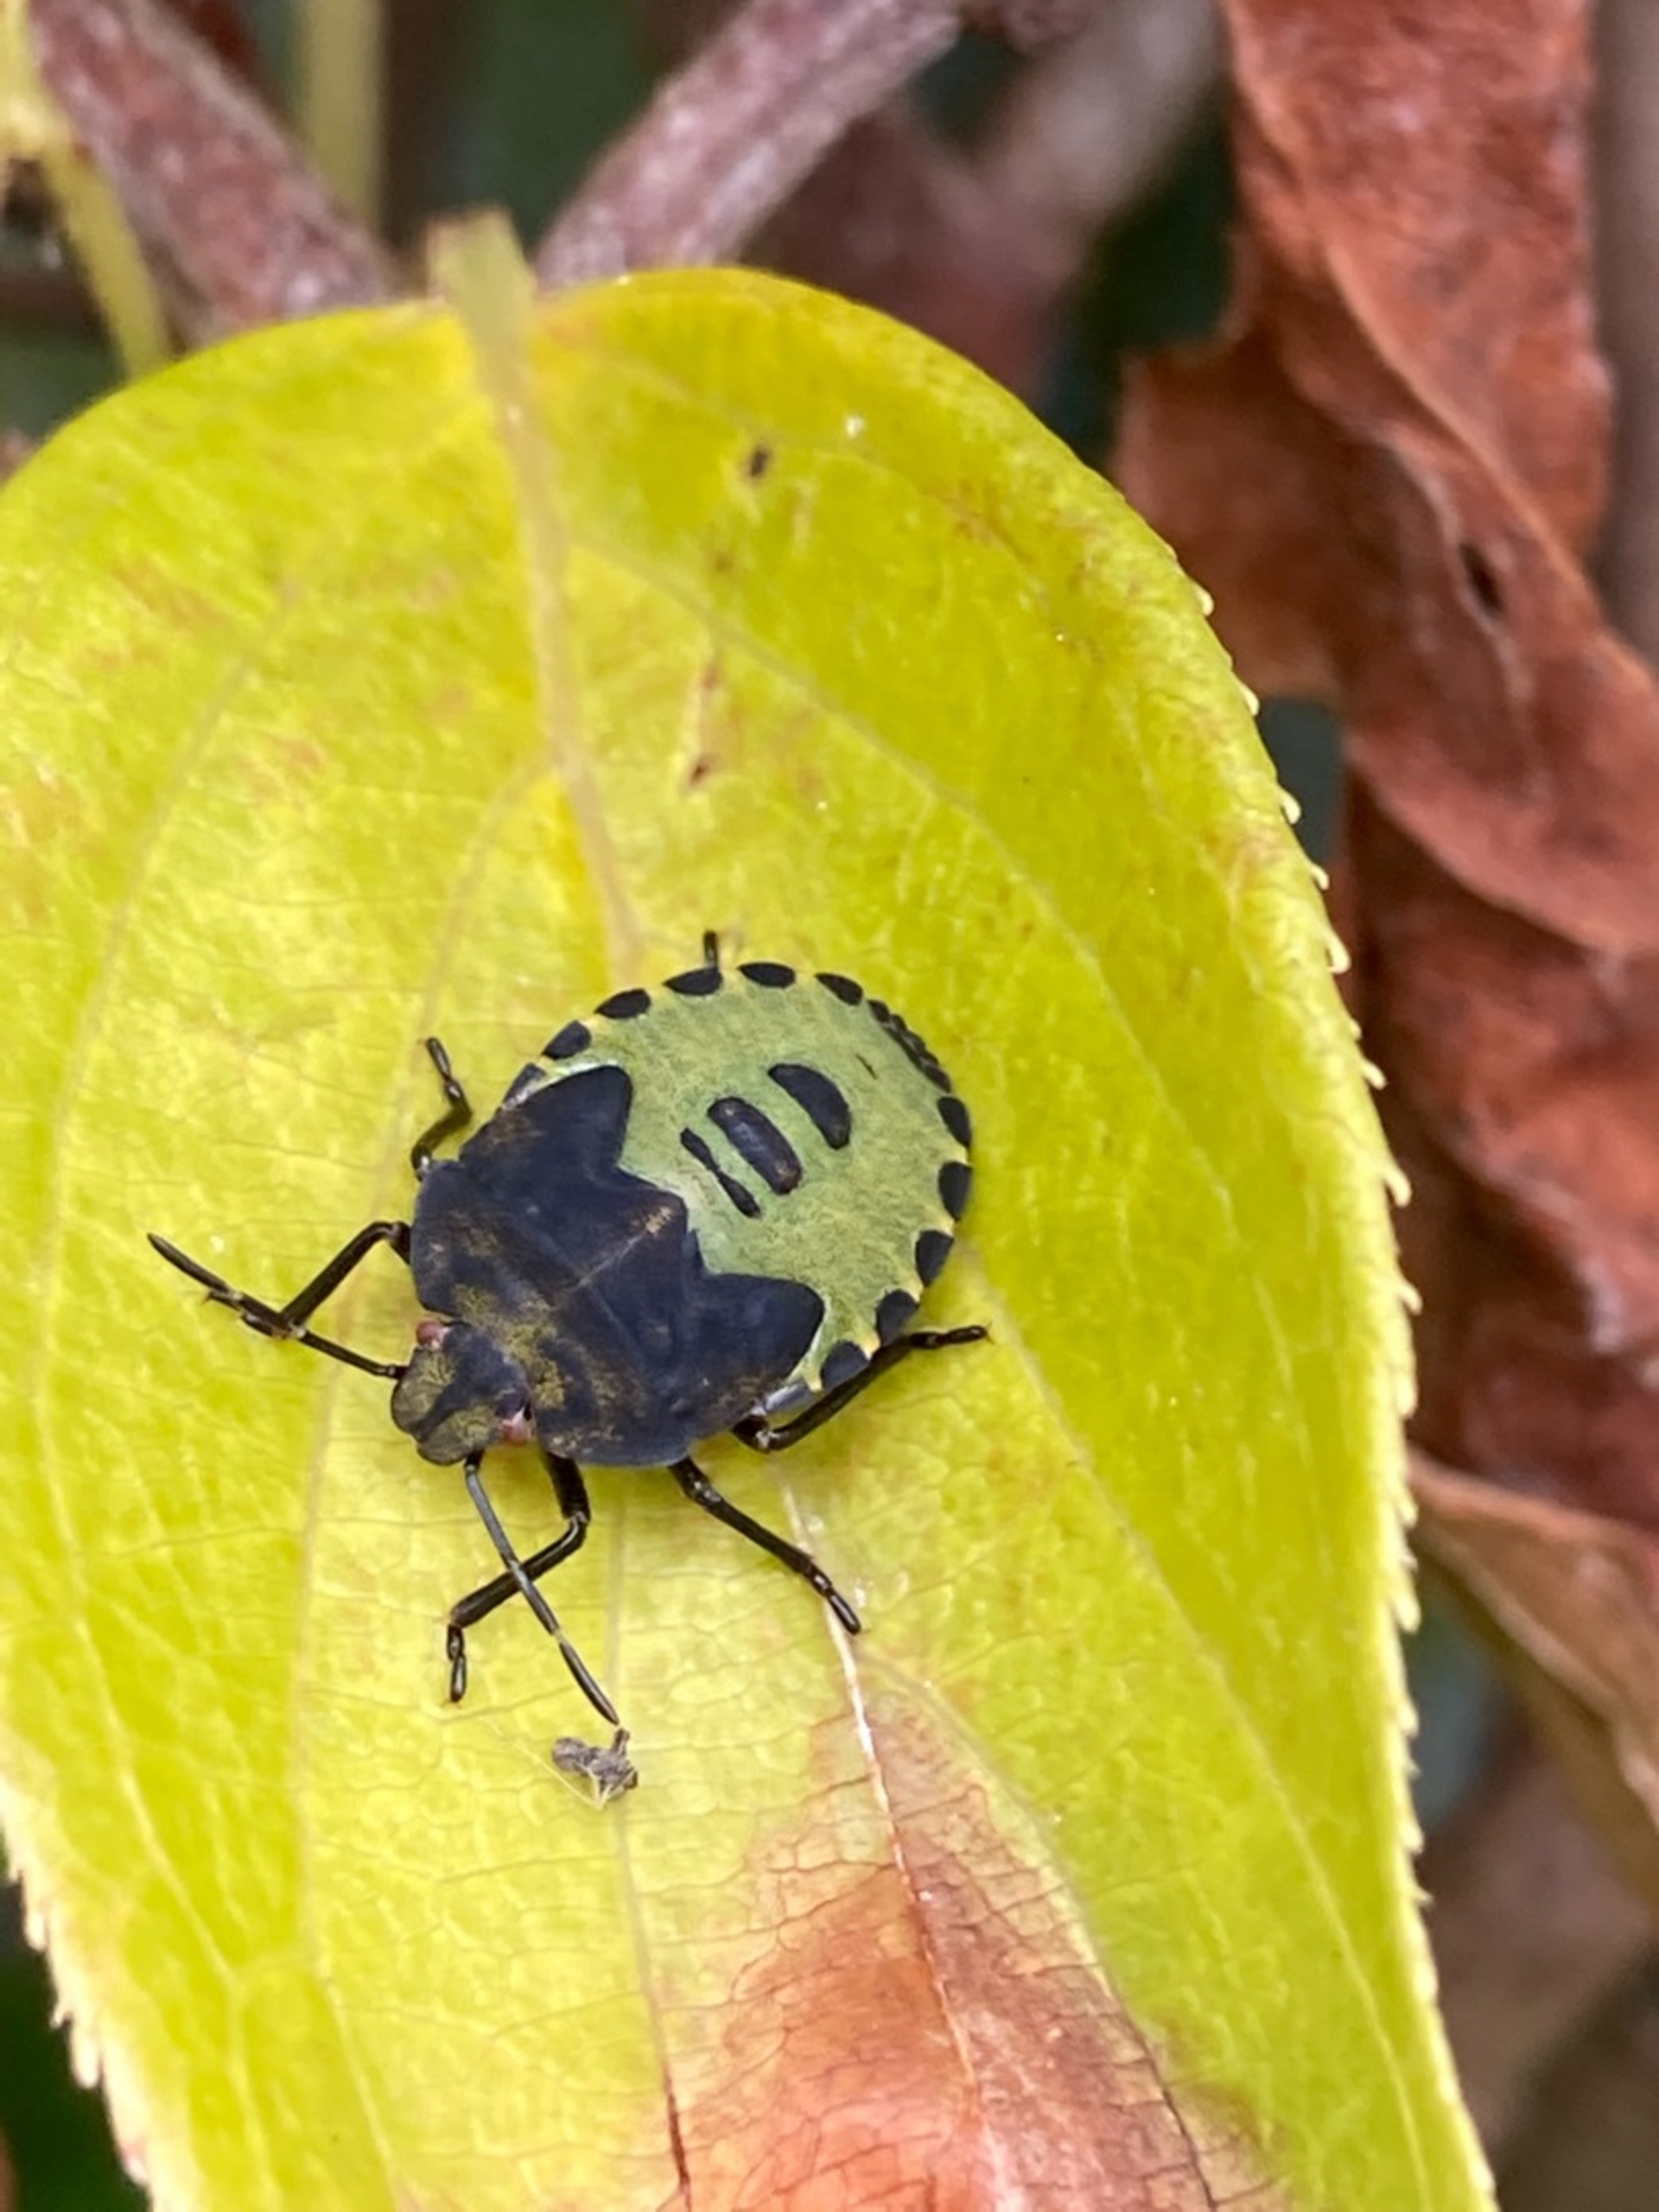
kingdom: Animalia
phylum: Arthropoda
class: Insecta
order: Hemiptera
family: Pentatomidae
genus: Palomena
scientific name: Palomena prasina
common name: Grøn bredtæge
